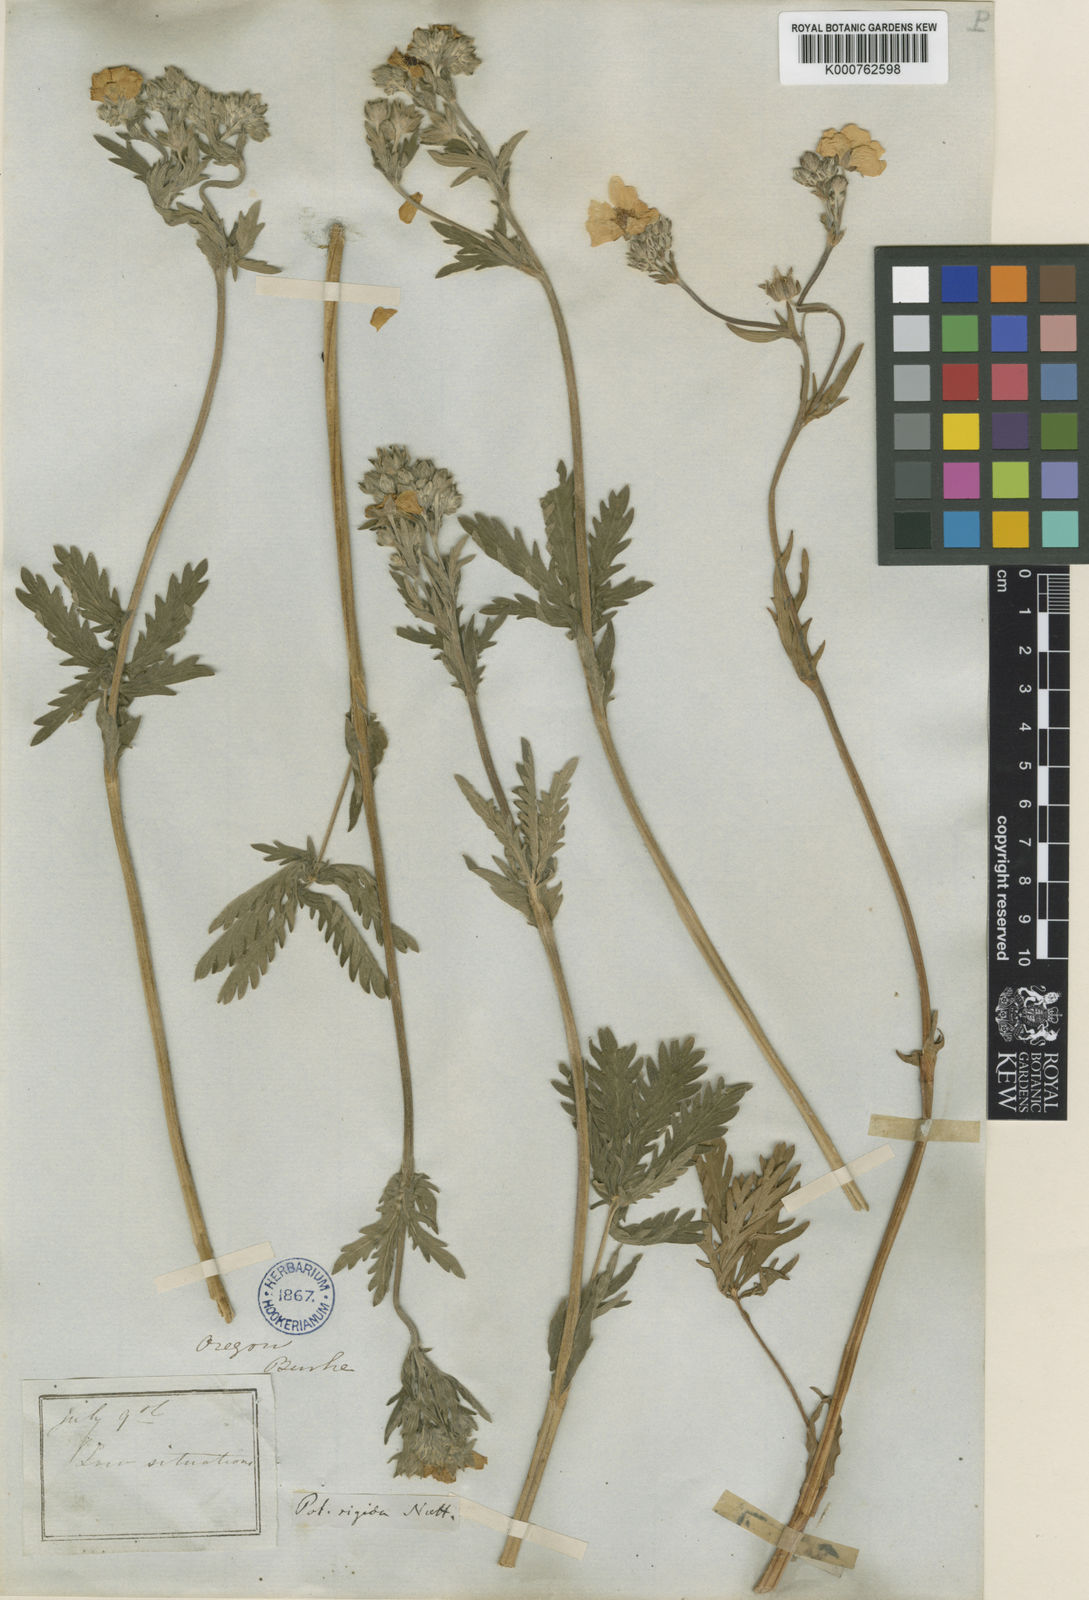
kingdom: Plantae
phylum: Tracheophyta
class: Magnoliopsida
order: Rosales
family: Rosaceae
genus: Potentilla
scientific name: Potentilla gracilis
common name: Graceful cinquefoil
